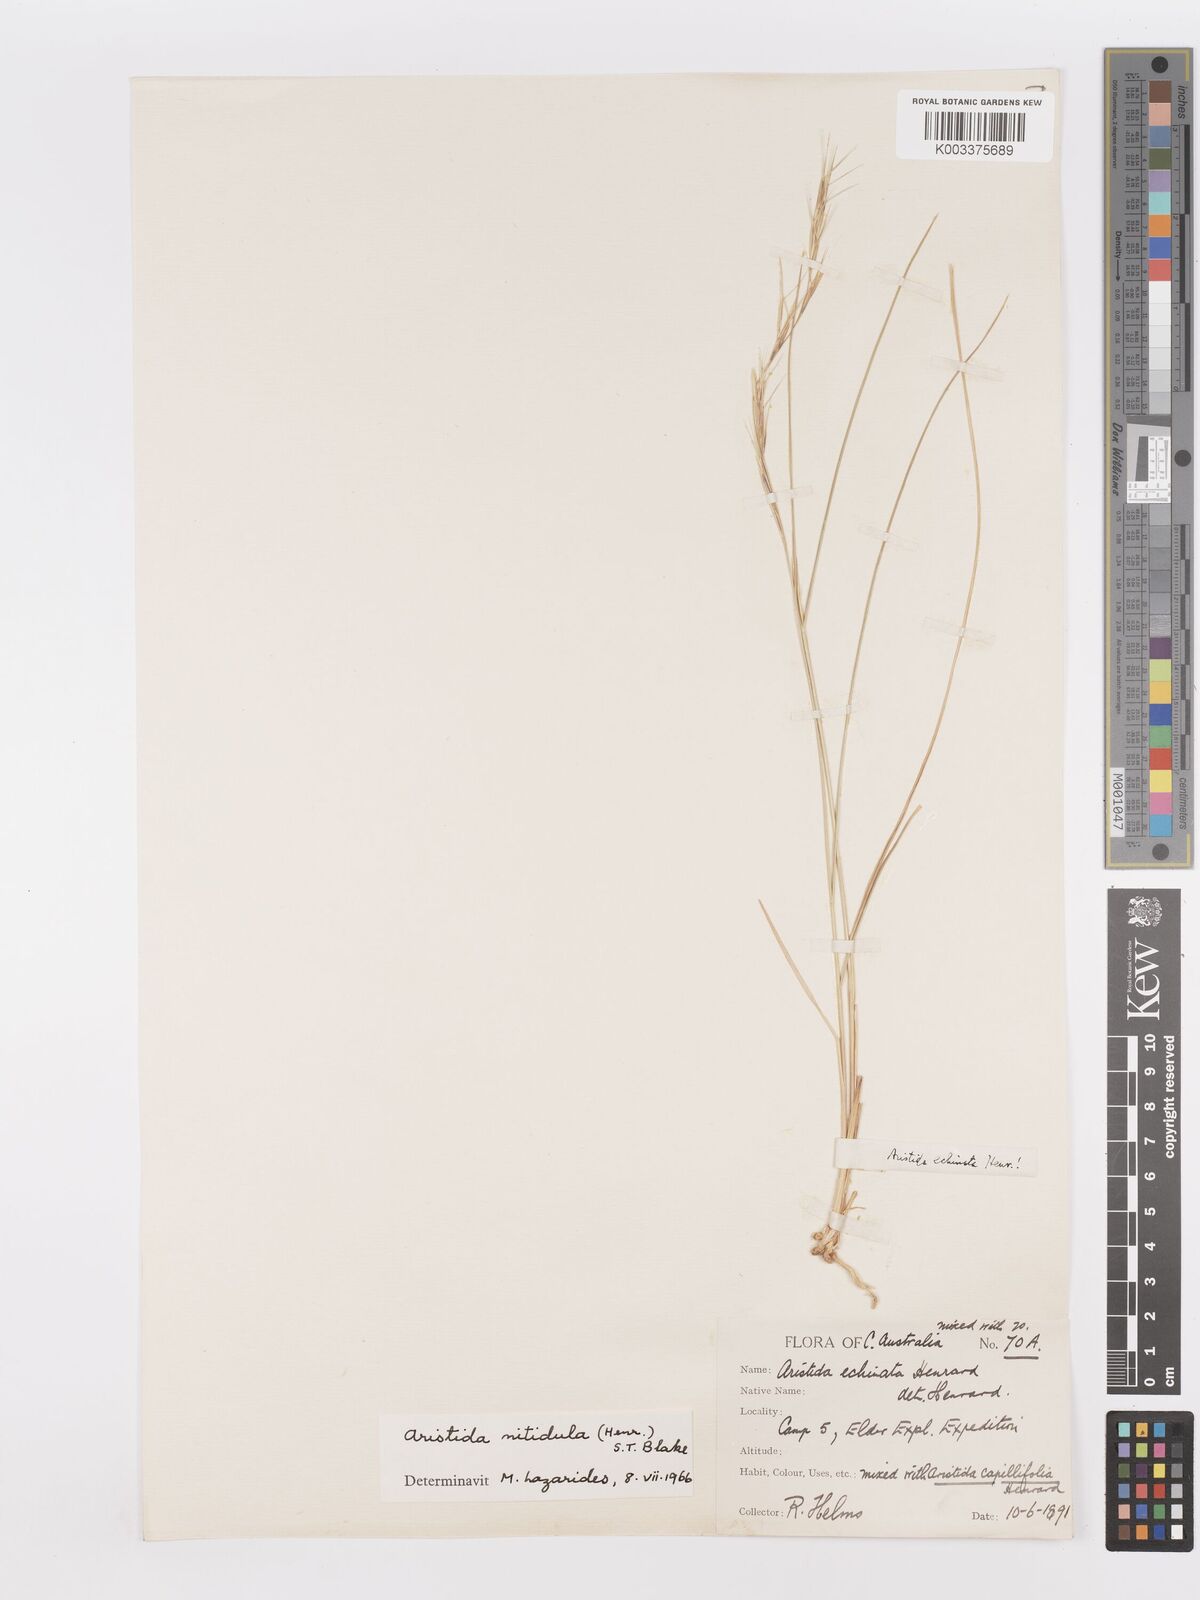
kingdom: Plantae
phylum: Tracheophyta
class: Liliopsida
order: Poales
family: Poaceae
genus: Aristida
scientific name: Aristida nitidula
